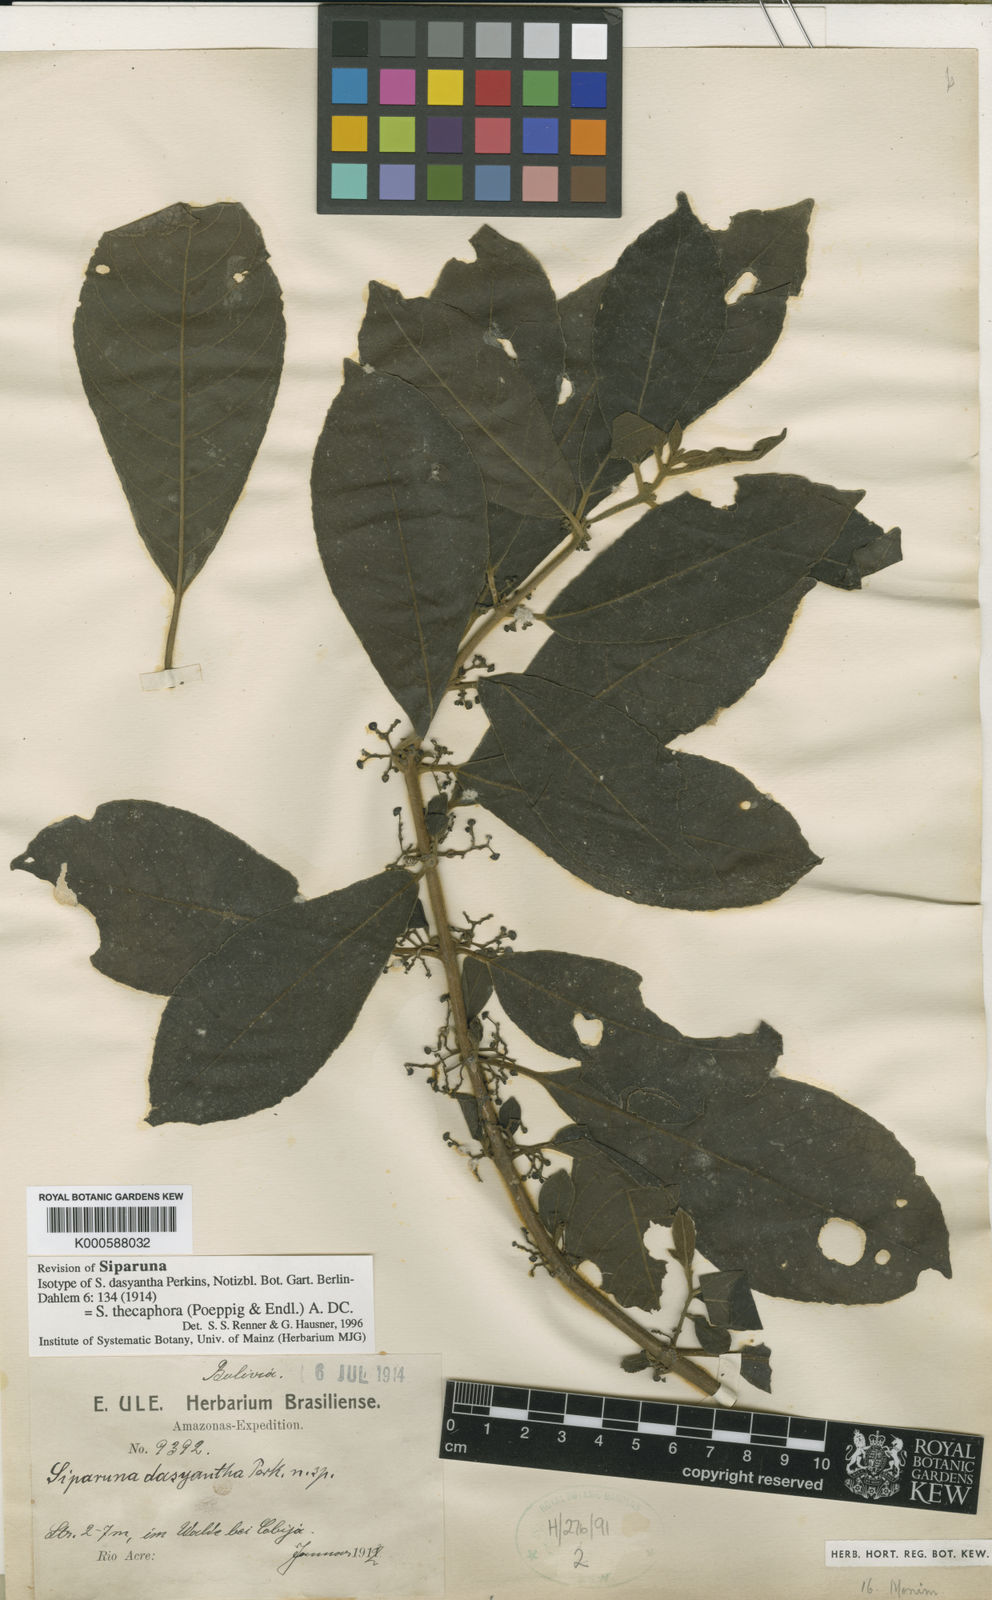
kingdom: Plantae
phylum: Tracheophyta
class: Magnoliopsida
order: Laurales
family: Siparunaceae
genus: Siparuna
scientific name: Siparuna thecaphora
